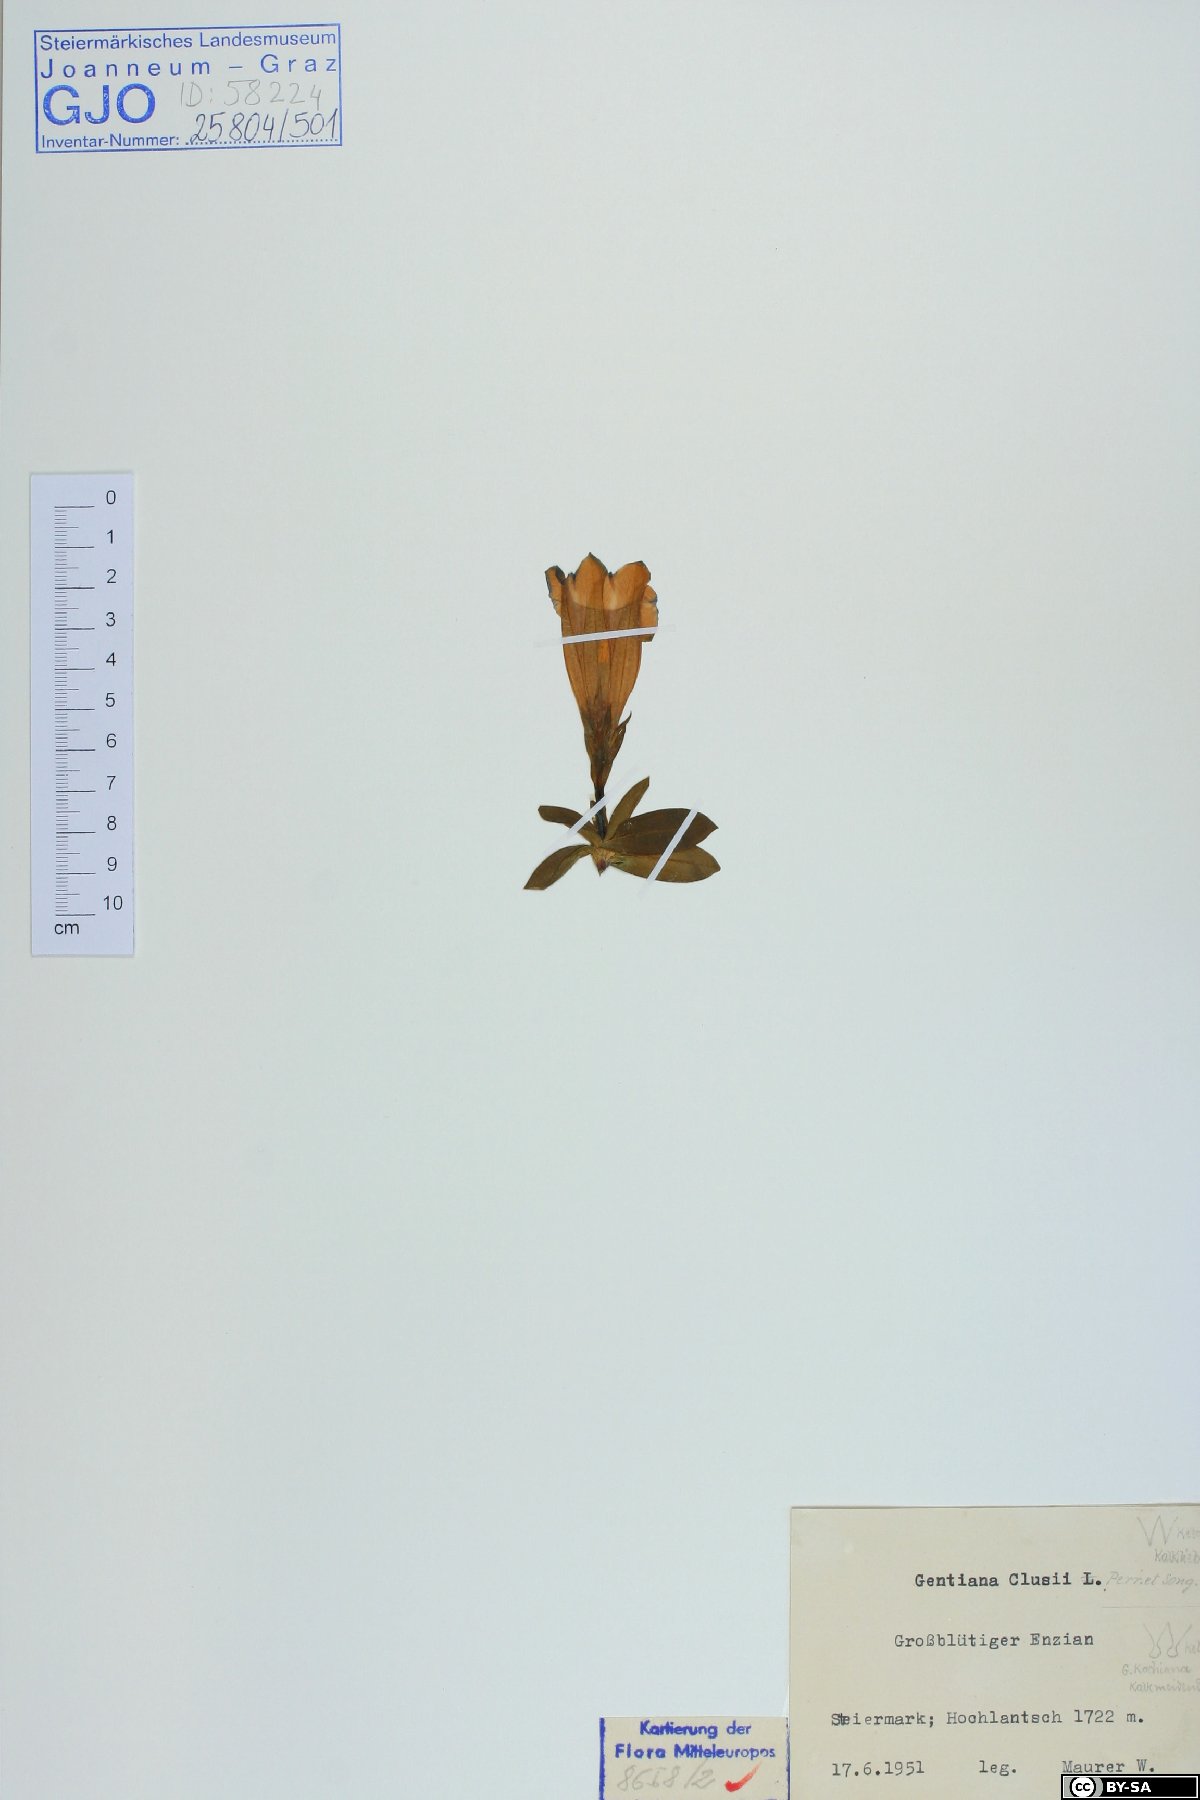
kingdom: Plantae
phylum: Tracheophyta
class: Magnoliopsida
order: Gentianales
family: Gentianaceae
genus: Gentiana
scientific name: Gentiana clusii
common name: Trumpet gentian
